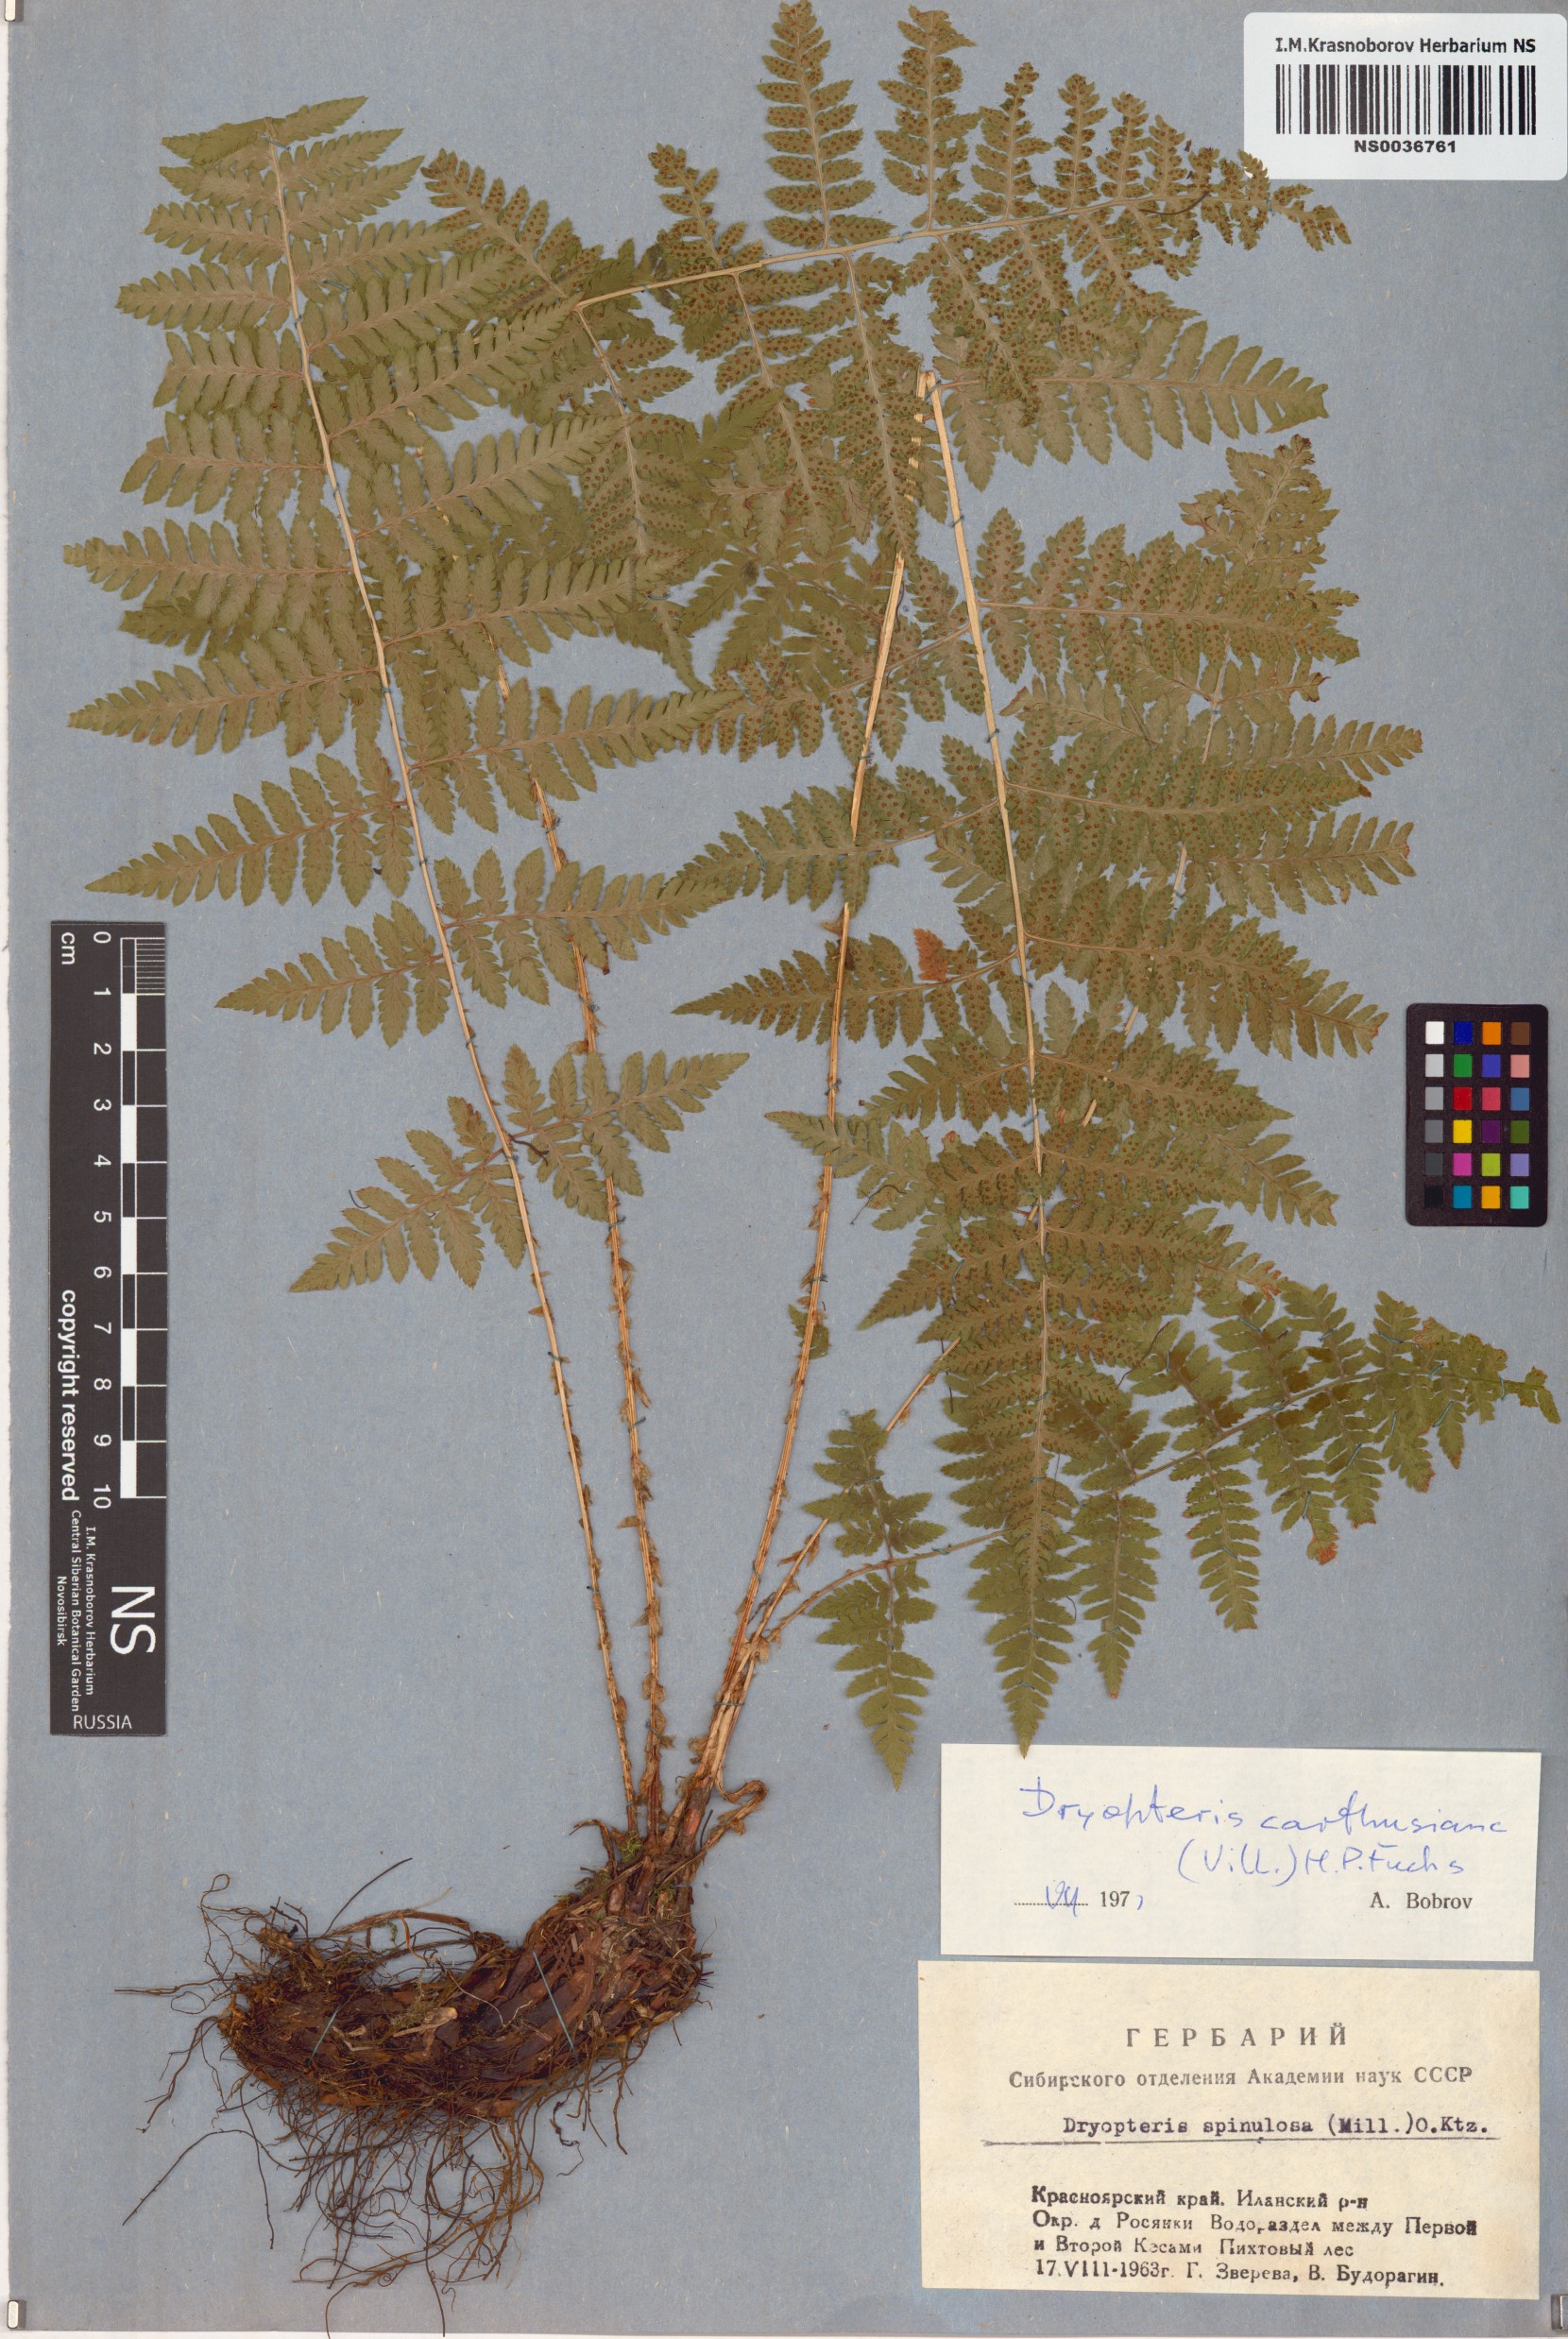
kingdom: Plantae
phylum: Tracheophyta
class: Polypodiopsida
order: Polypodiales
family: Dryopteridaceae
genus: Dryopteris
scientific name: Dryopteris carthusiana
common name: Narrow buckler-fern
